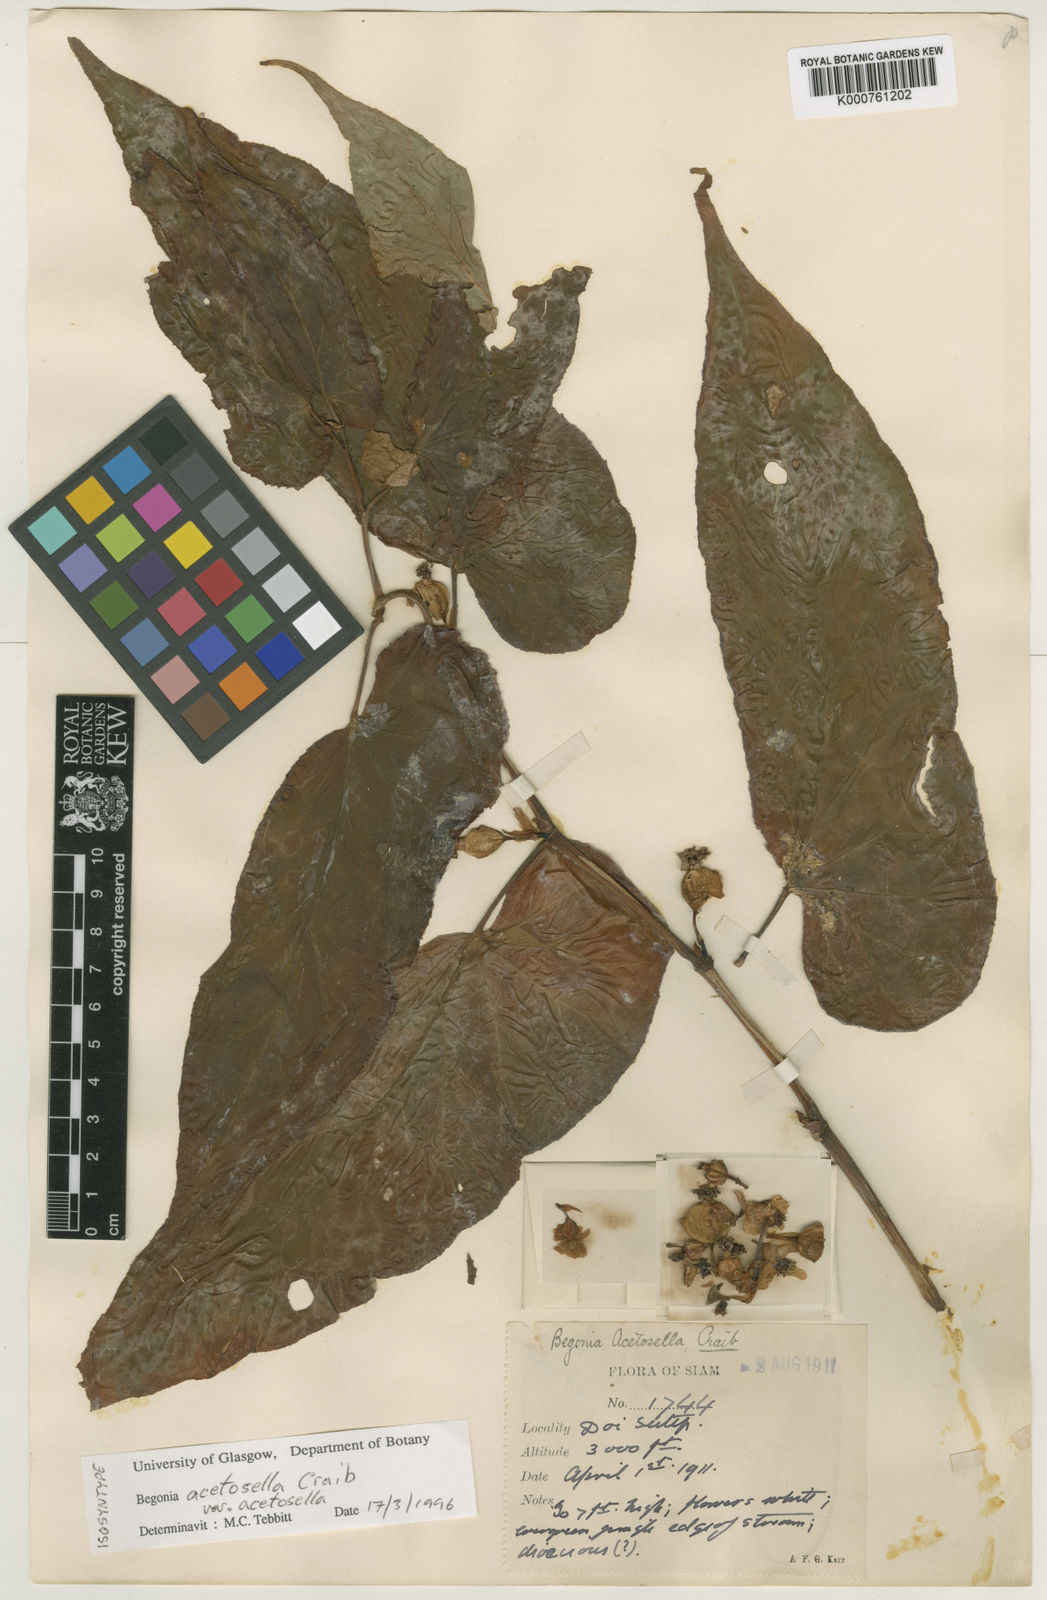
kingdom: Plantae
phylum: Tracheophyta
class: Magnoliopsida
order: Cucurbitales
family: Begoniaceae
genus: Begonia
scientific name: Begonia acetosella
